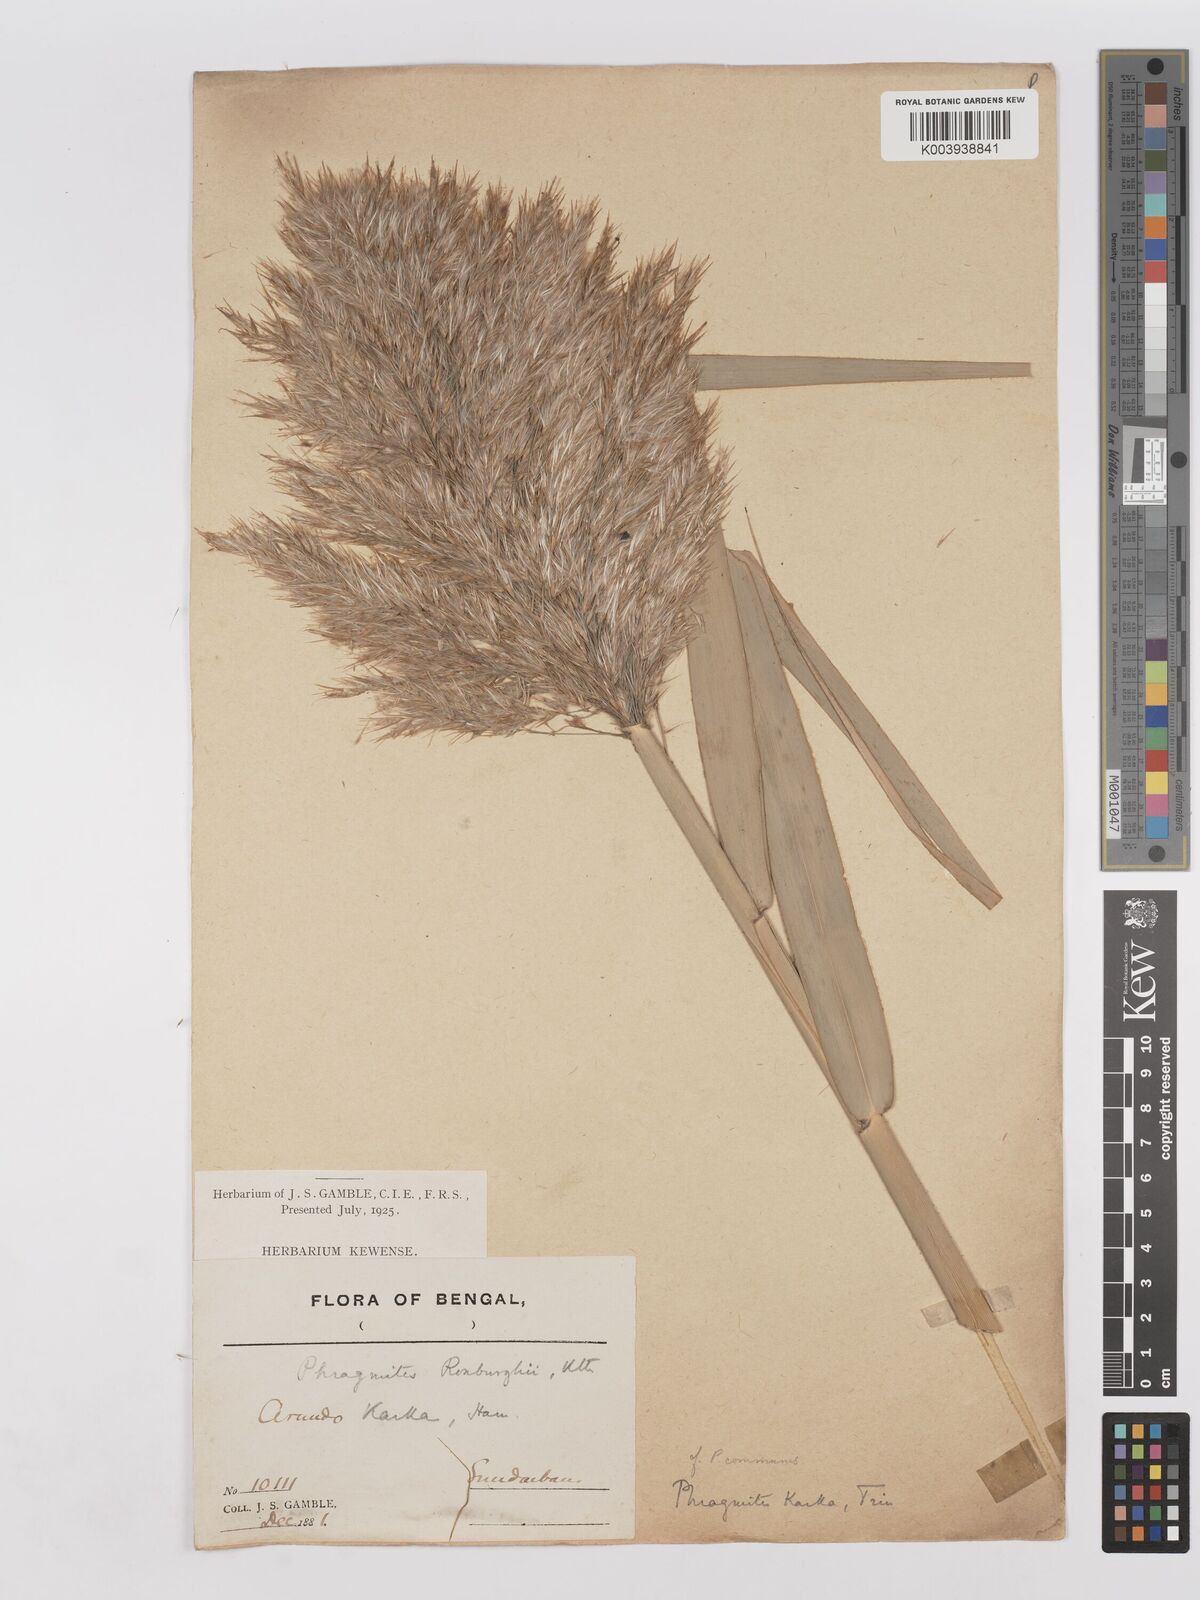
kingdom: Plantae
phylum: Tracheophyta
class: Liliopsida
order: Poales
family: Poaceae
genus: Phragmites
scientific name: Phragmites karka
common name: Tropical reed
